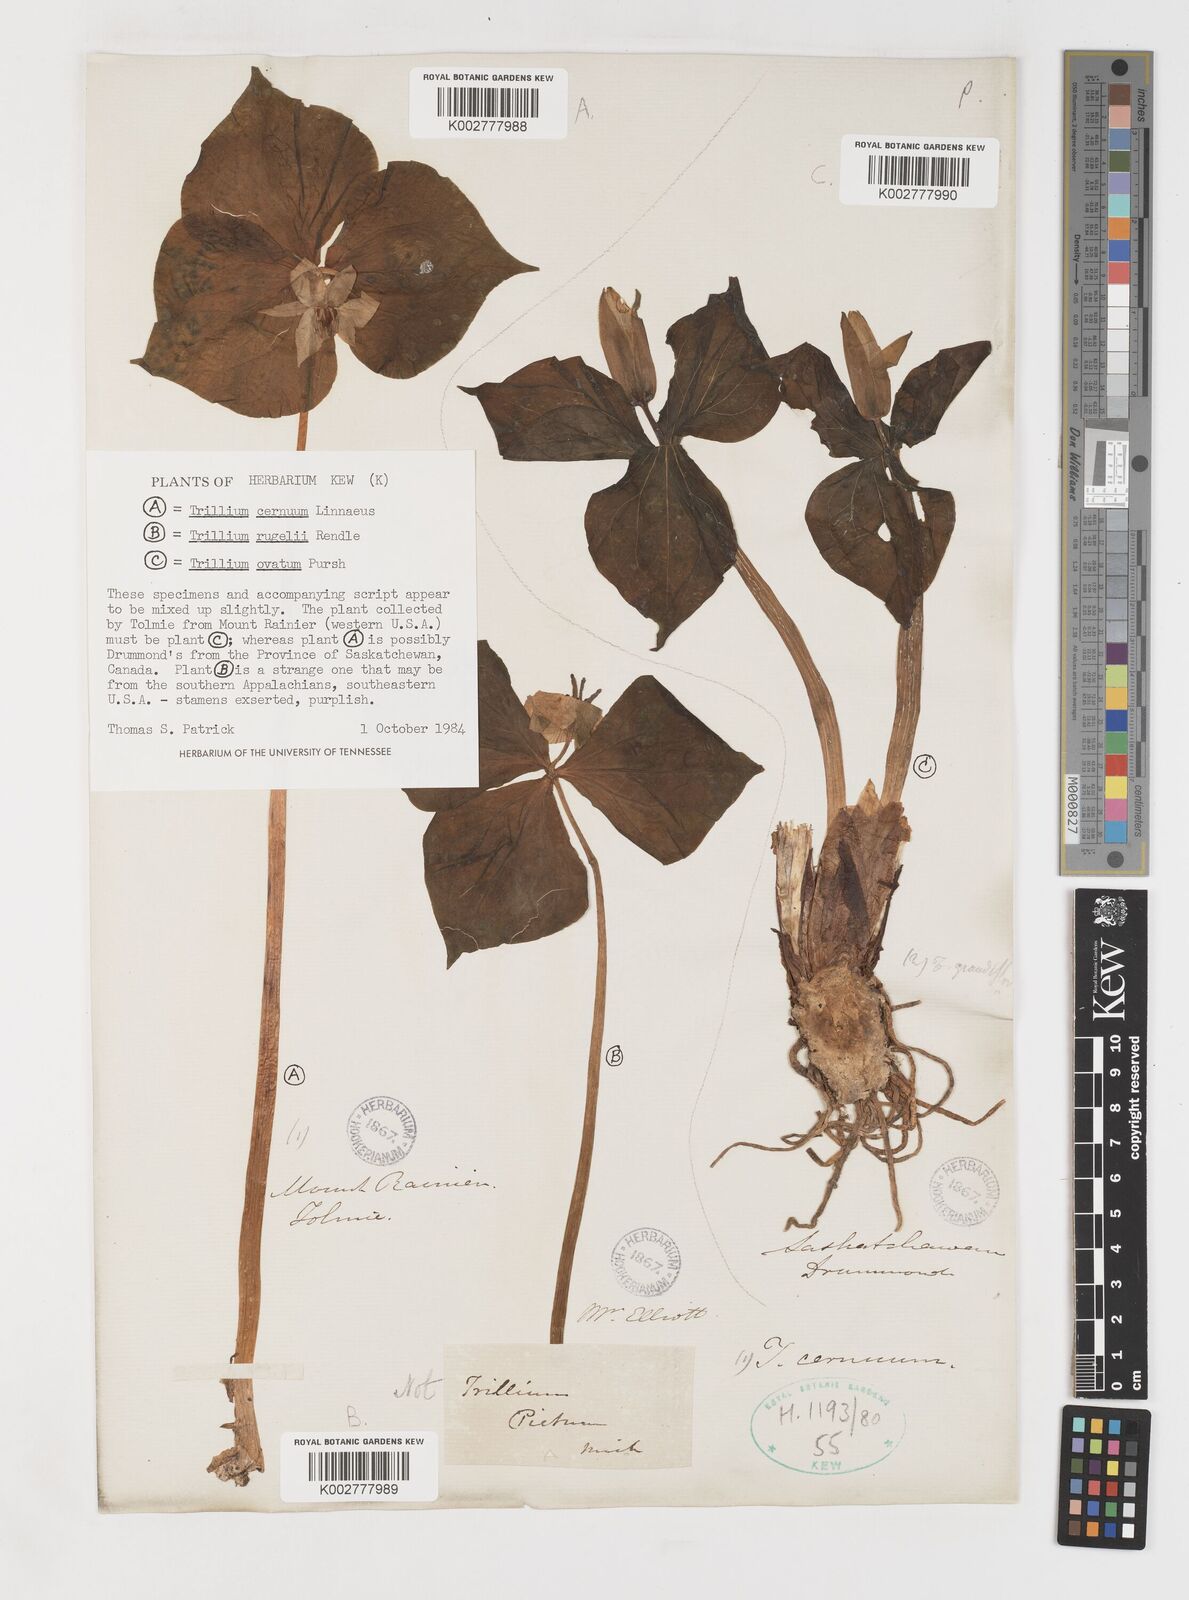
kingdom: Plantae
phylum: Tracheophyta
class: Liliopsida
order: Liliales
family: Melanthiaceae
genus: Trillium
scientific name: Trillium ovatum
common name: Pacific trillium
